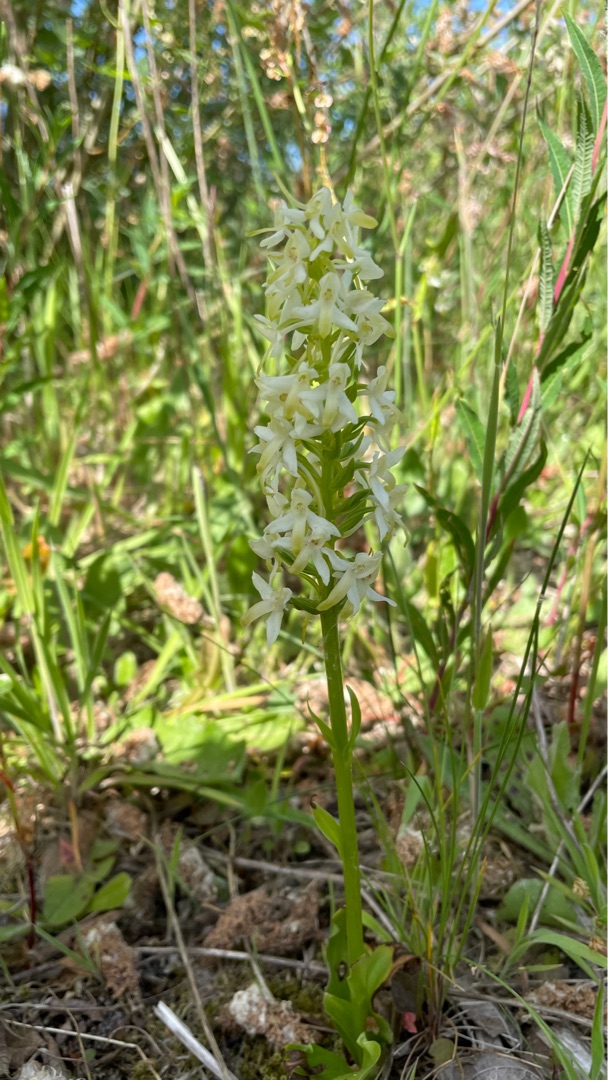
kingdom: Plantae
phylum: Tracheophyta
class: Liliopsida
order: Asparagales
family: Orchidaceae
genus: Platanthera
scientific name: Platanthera bifolia
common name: Bakke-gøgelilje
